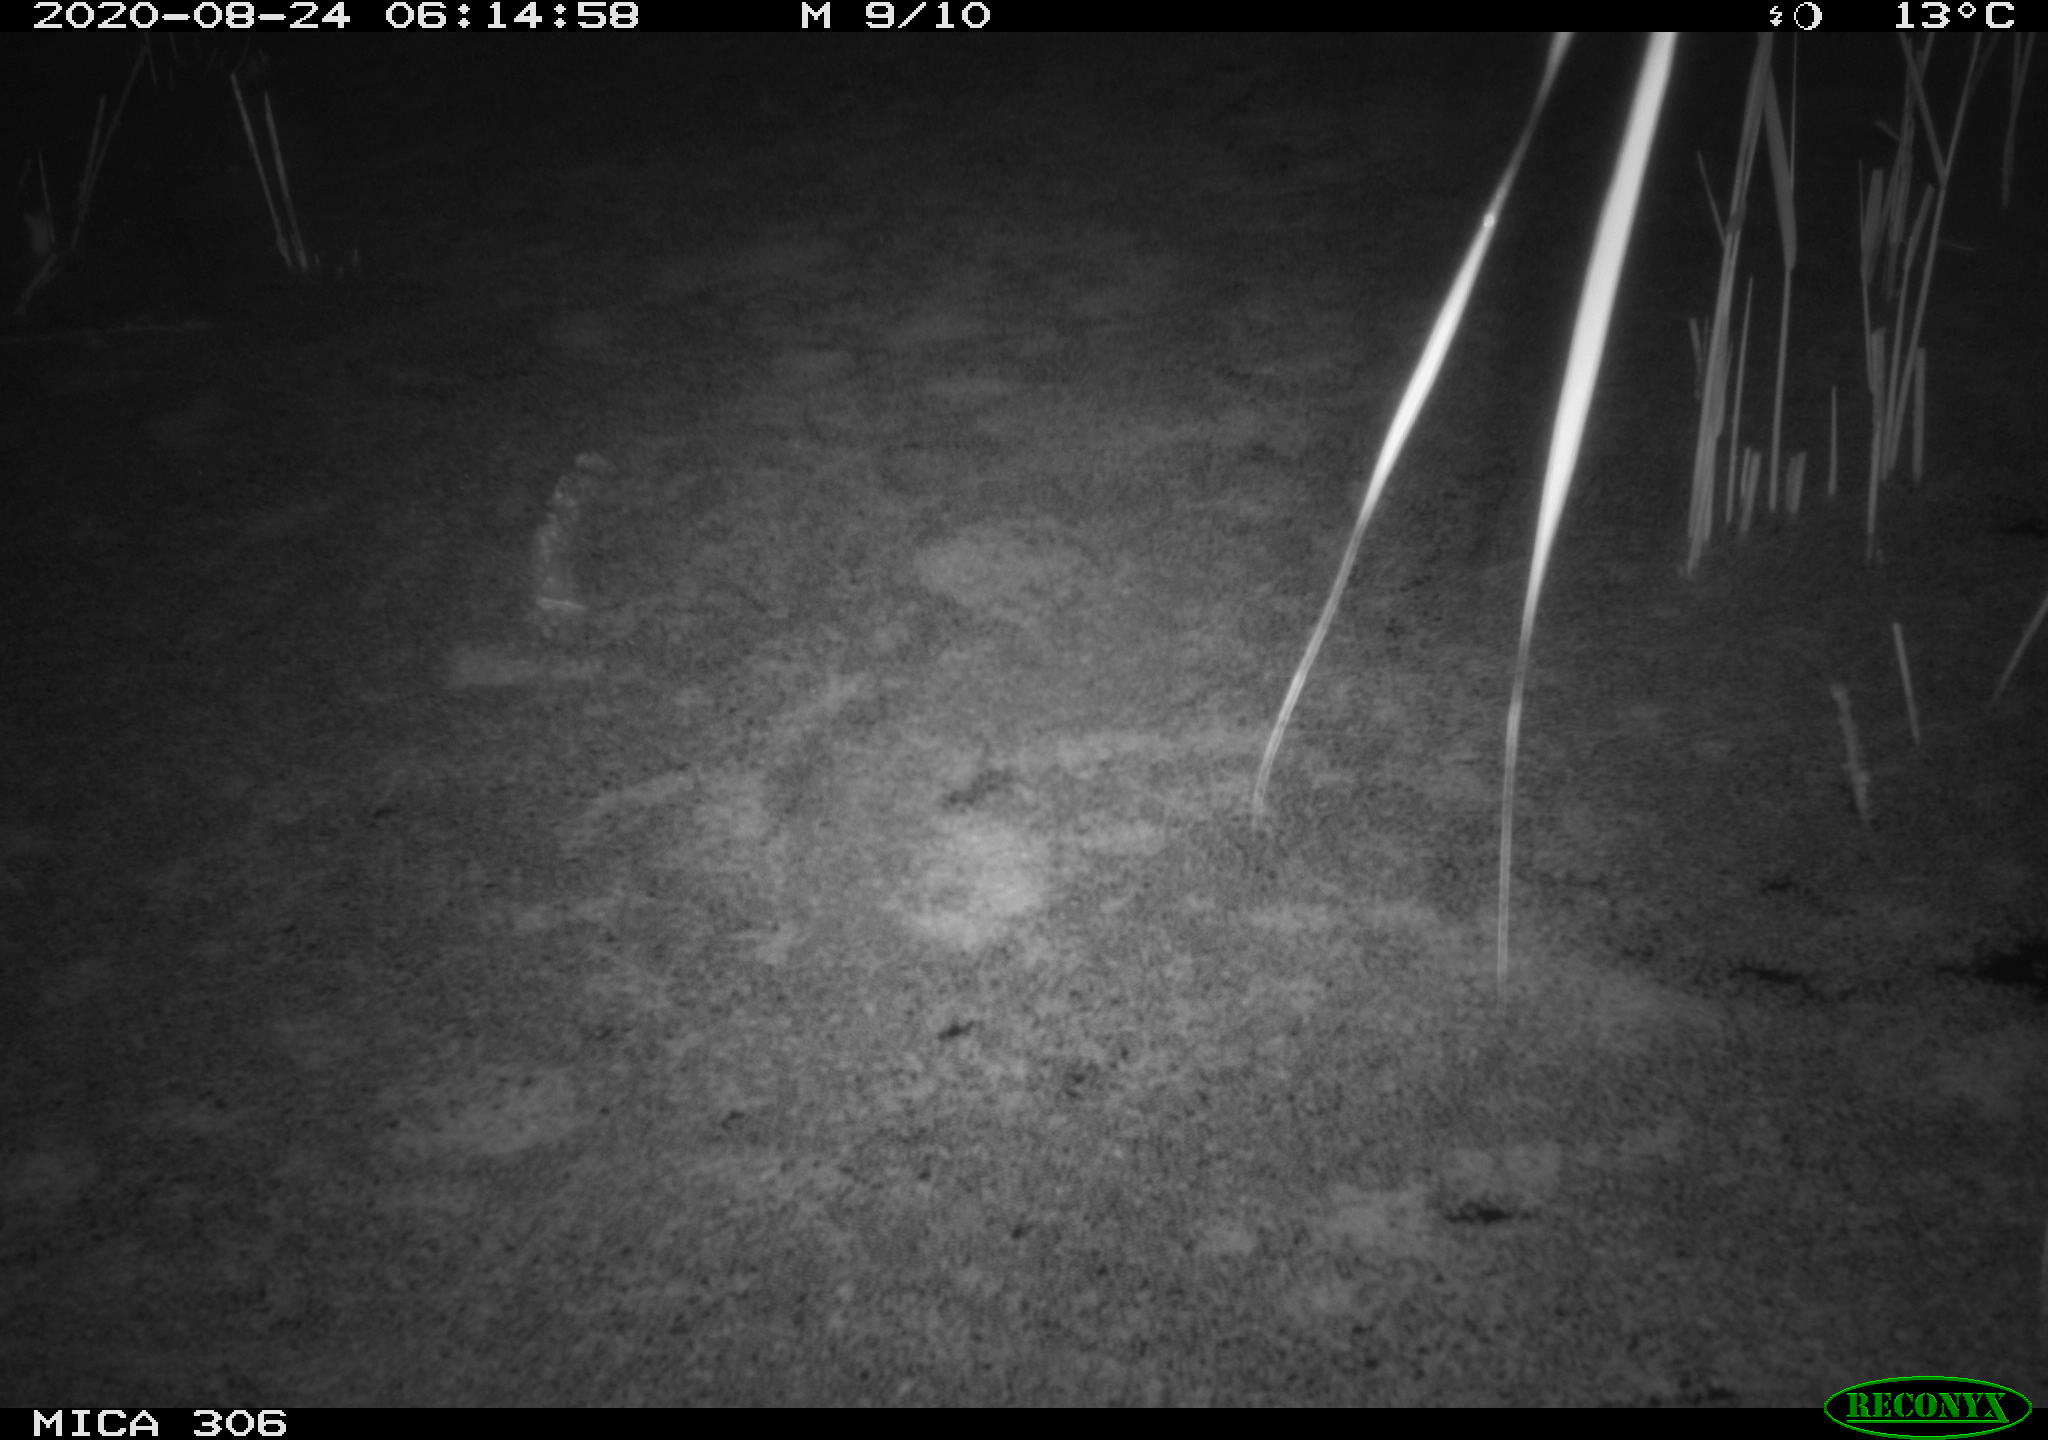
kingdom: Animalia
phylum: Chordata
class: Aves
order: Gruiformes
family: Rallidae
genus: Fulica
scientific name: Fulica atra
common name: Eurasian coot
